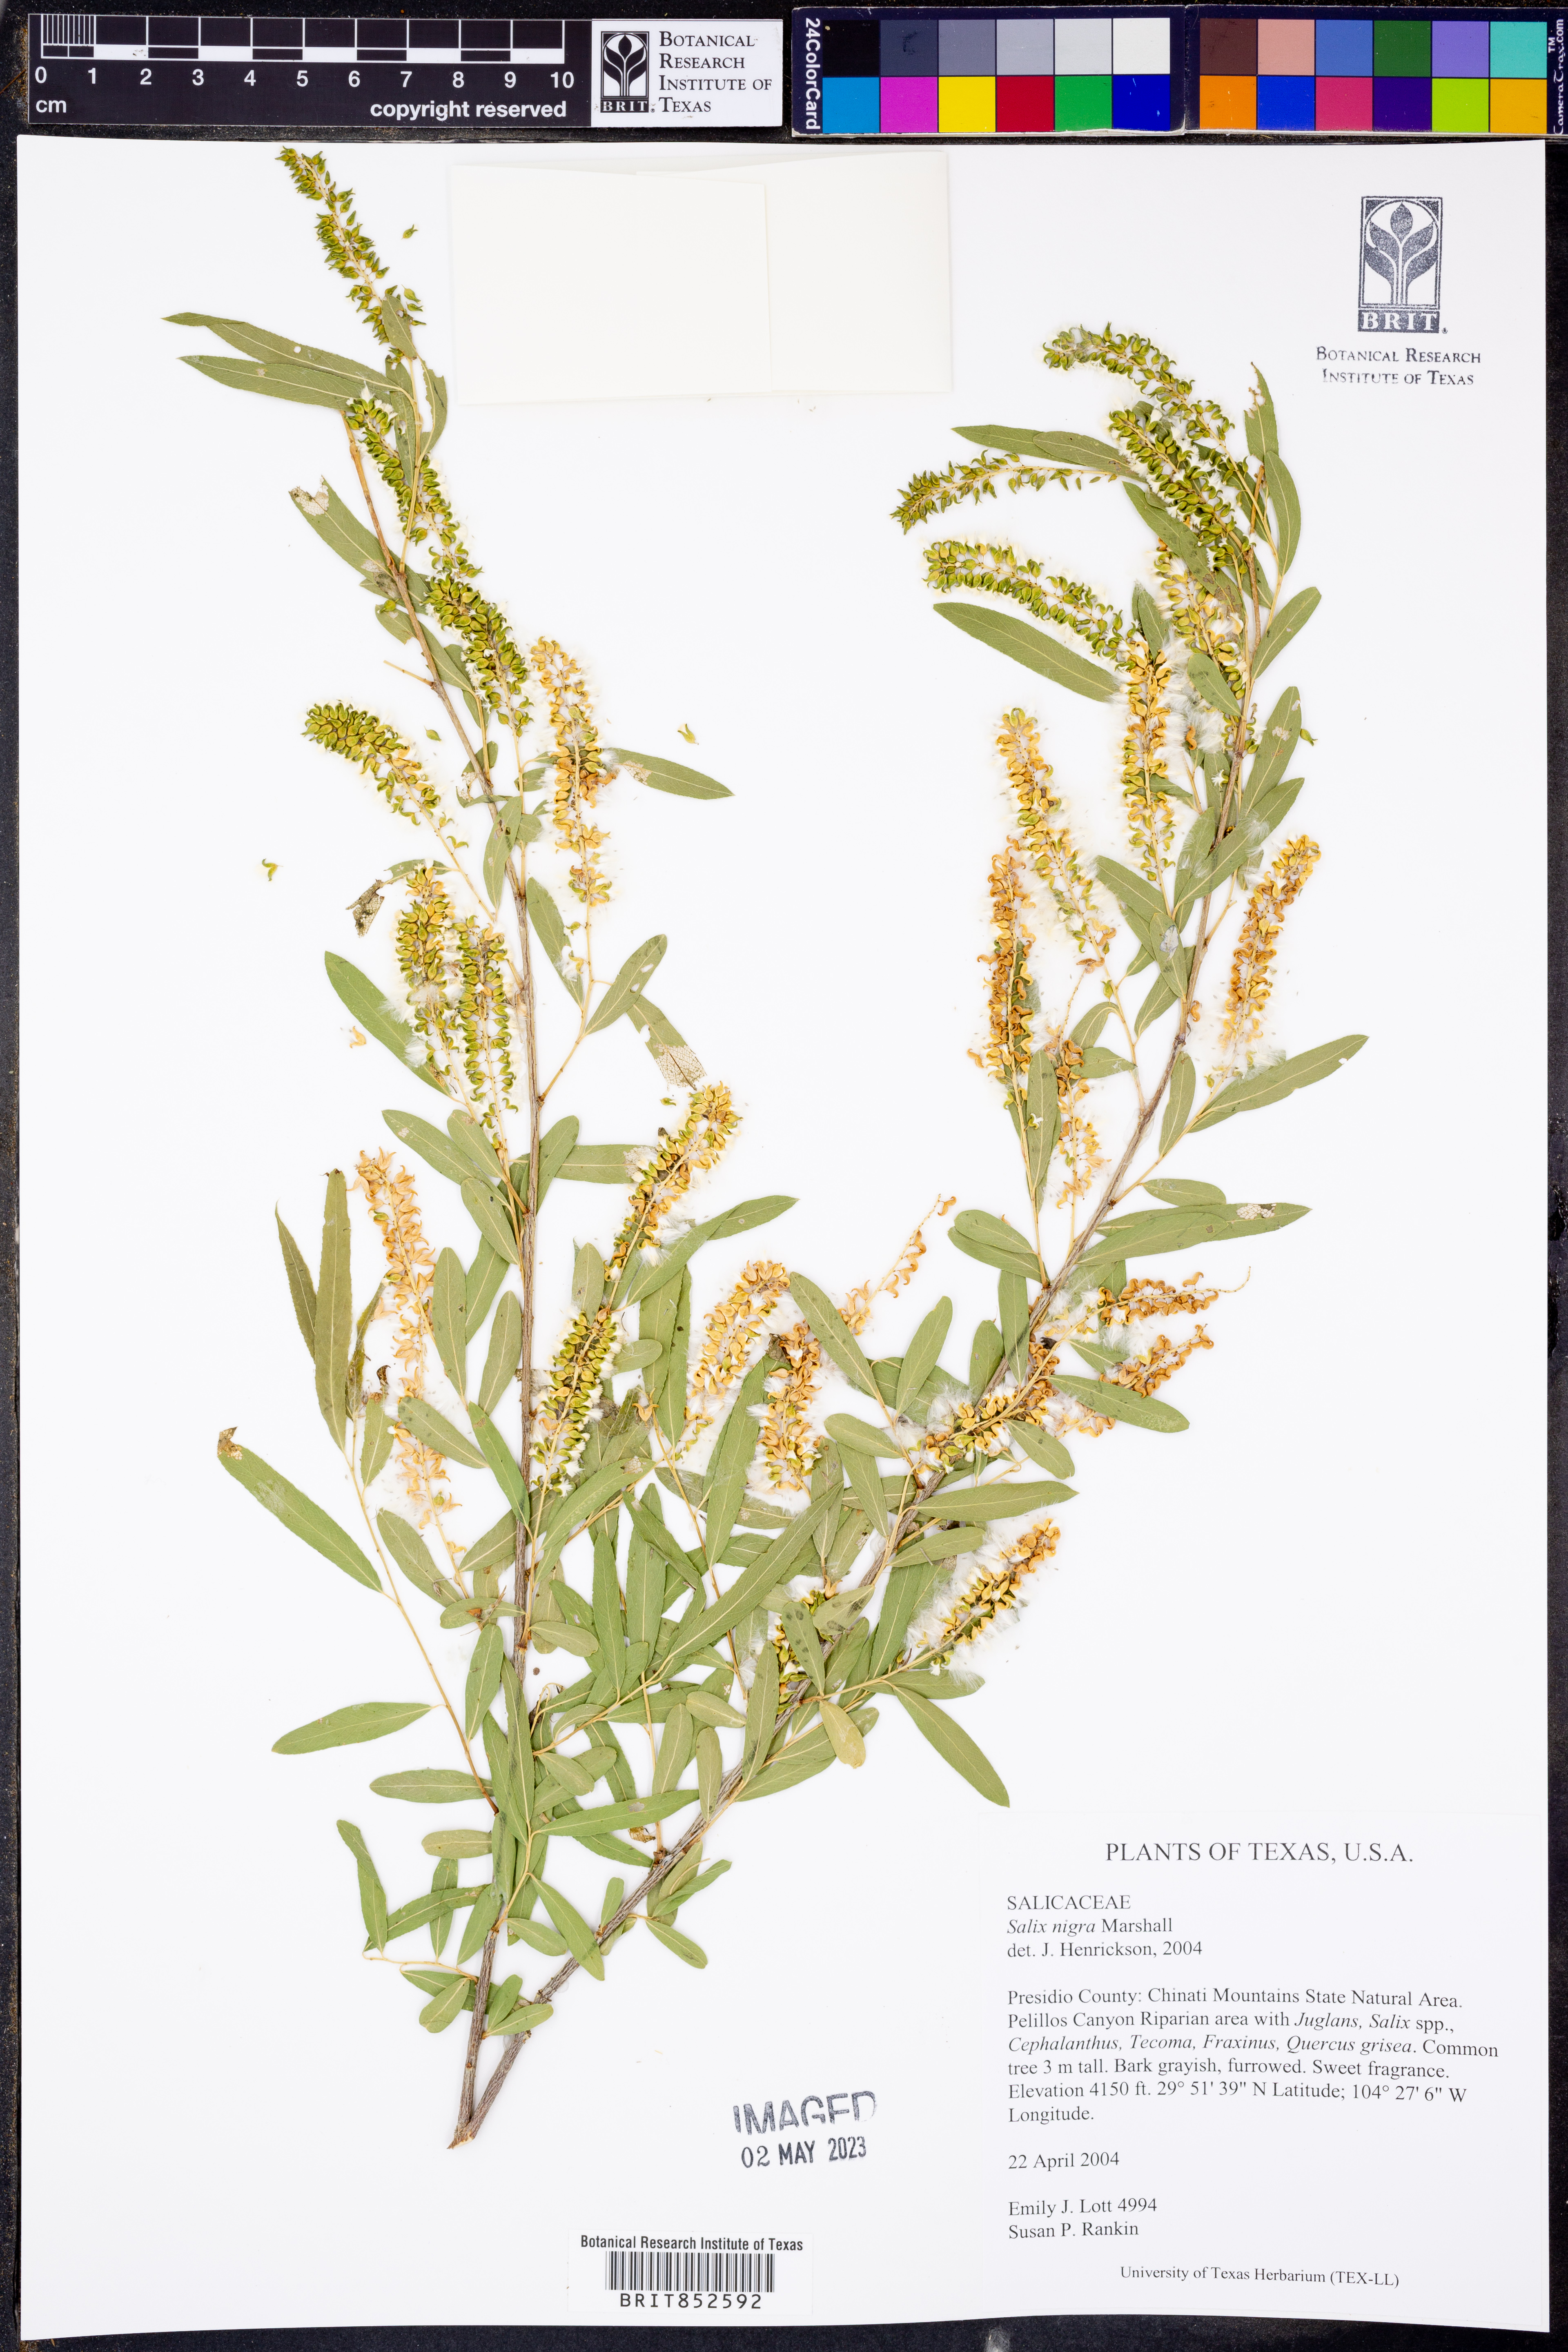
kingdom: Plantae
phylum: Tracheophyta
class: Magnoliopsida
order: Malpighiales
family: Salicaceae
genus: Salix
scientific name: Salix nigra
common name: Black willow
